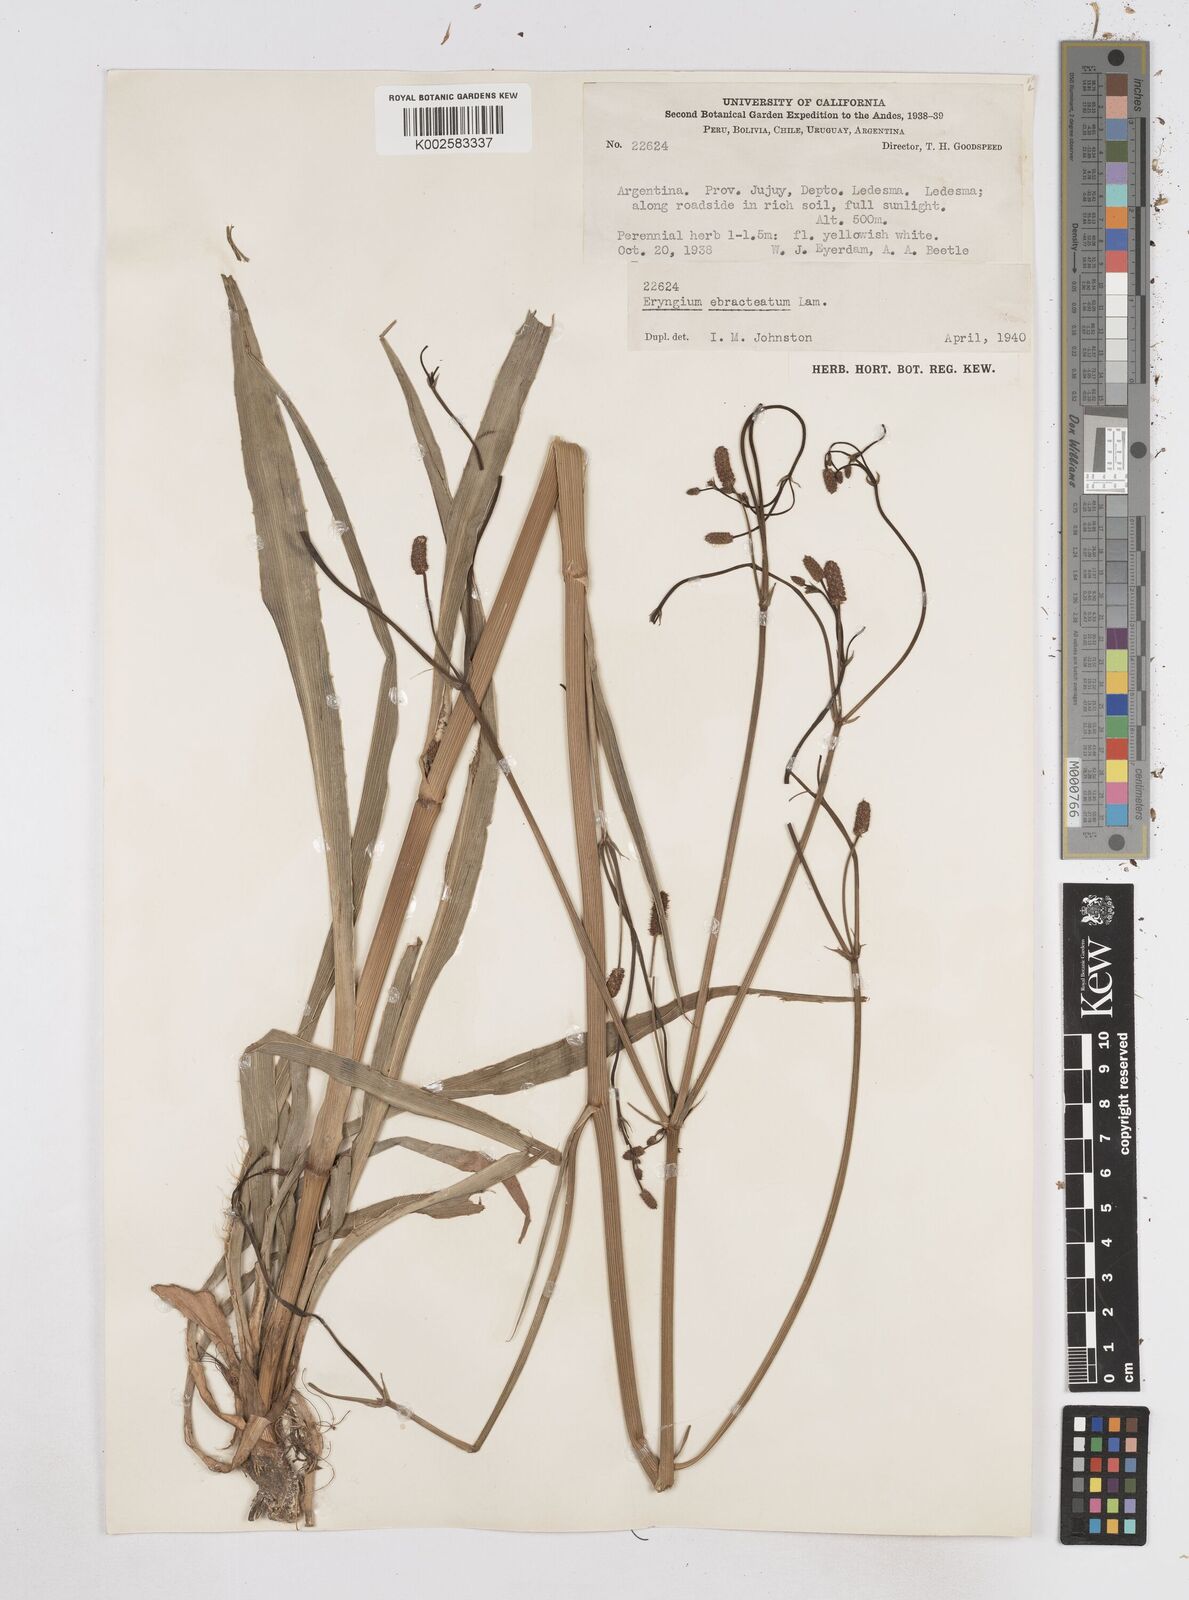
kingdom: Plantae
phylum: Tracheophyta
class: Magnoliopsida
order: Apiales
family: Apiaceae
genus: Eryngium
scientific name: Eryngium ebracteatum
